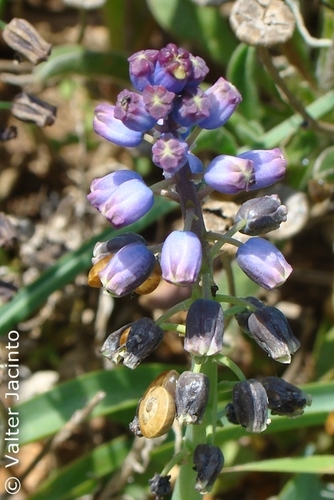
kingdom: Plantae
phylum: Tracheophyta
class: Liliopsida
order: Asparagales
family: Asparagaceae
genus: Bellevalia
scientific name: Bellevalia dubia
